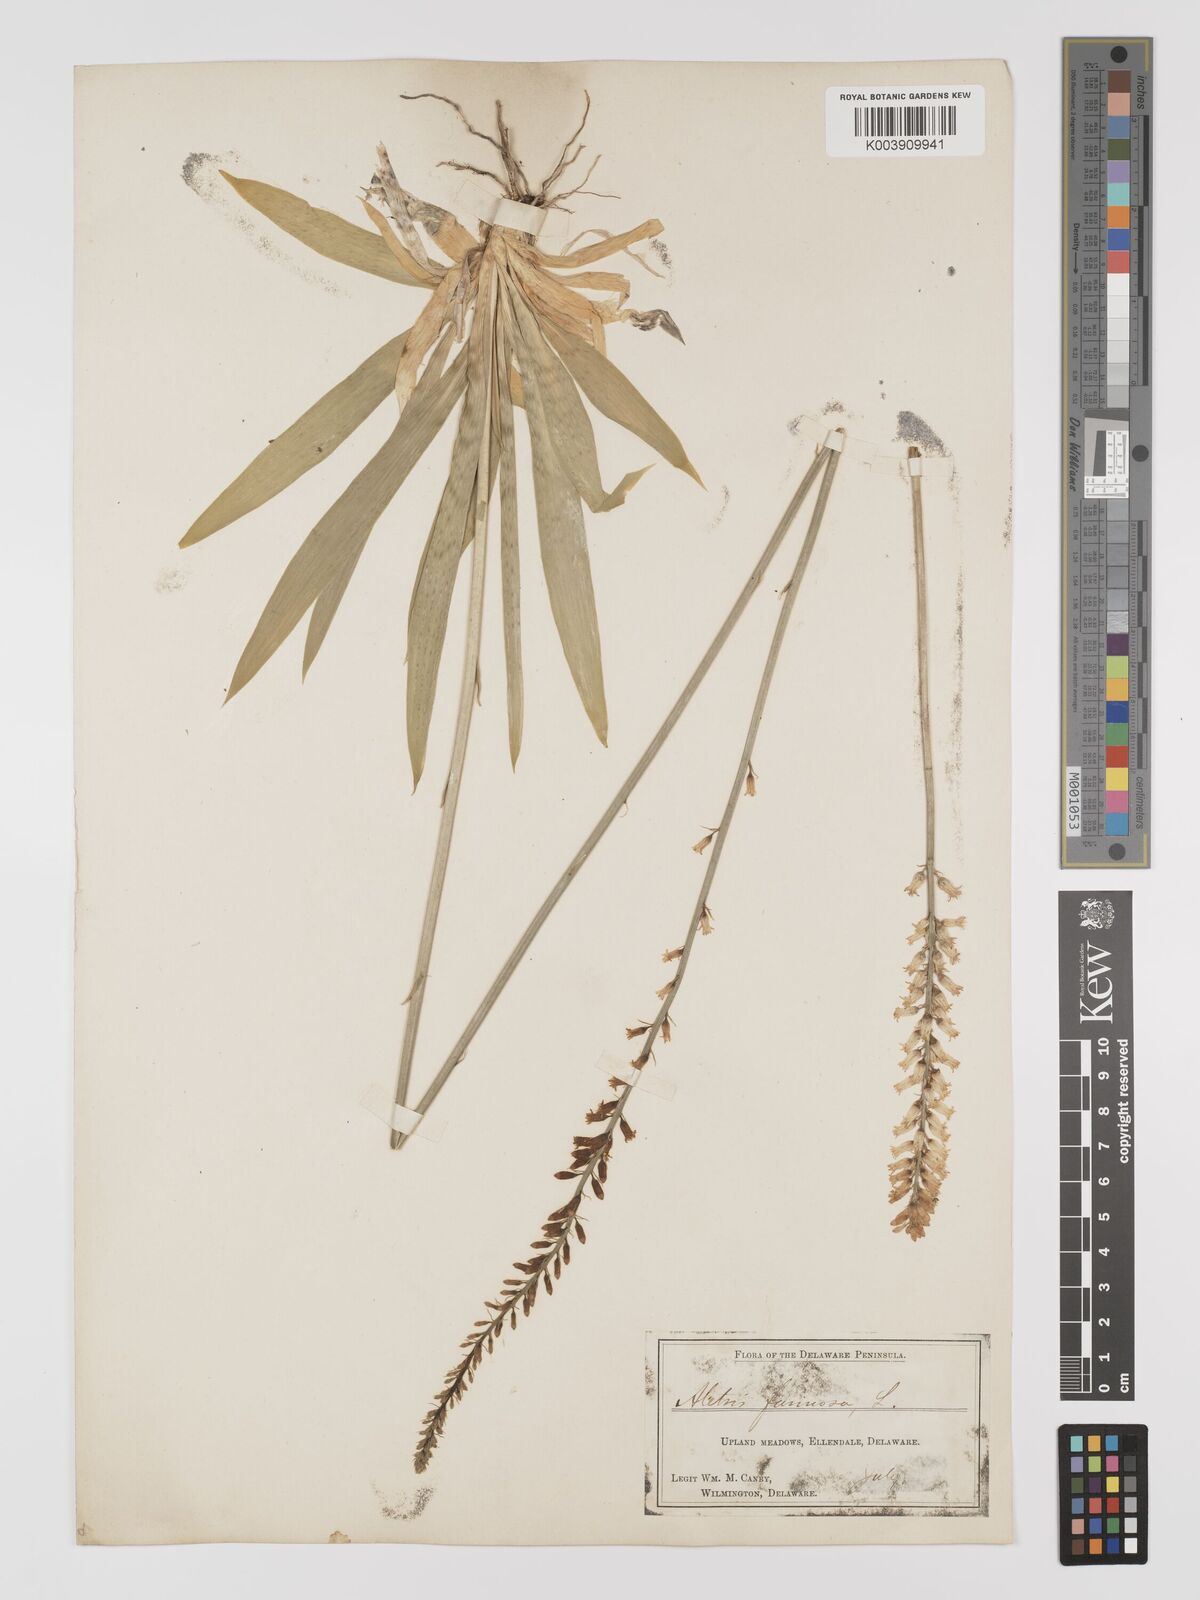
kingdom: Plantae
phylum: Tracheophyta
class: Liliopsida
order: Dioscoreales
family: Nartheciaceae
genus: Aletris
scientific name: Aletris farinosa
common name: Colicroot
